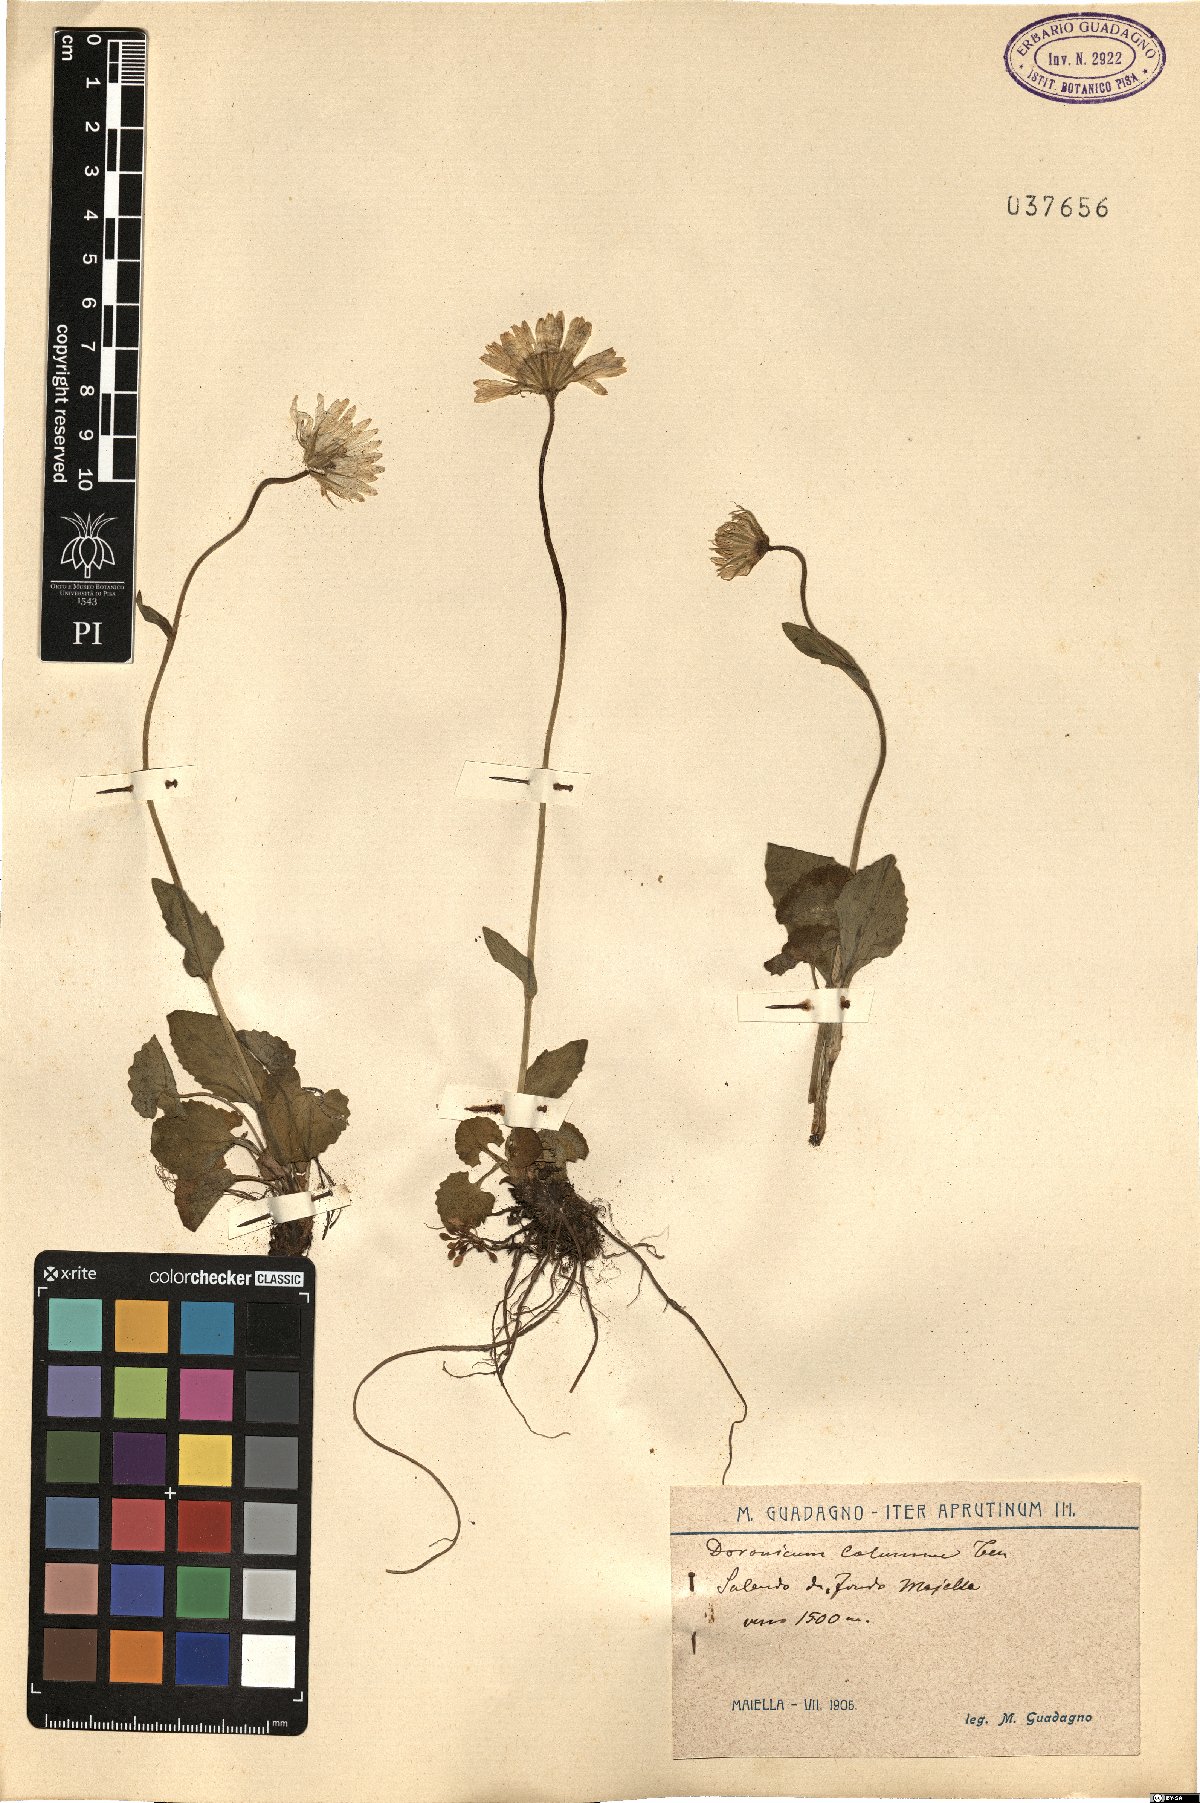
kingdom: Plantae
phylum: Tracheophyta
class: Magnoliopsida
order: Asterales
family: Asteraceae
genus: Doronicum
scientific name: Doronicum columnae
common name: Eastern leopard's-bane
